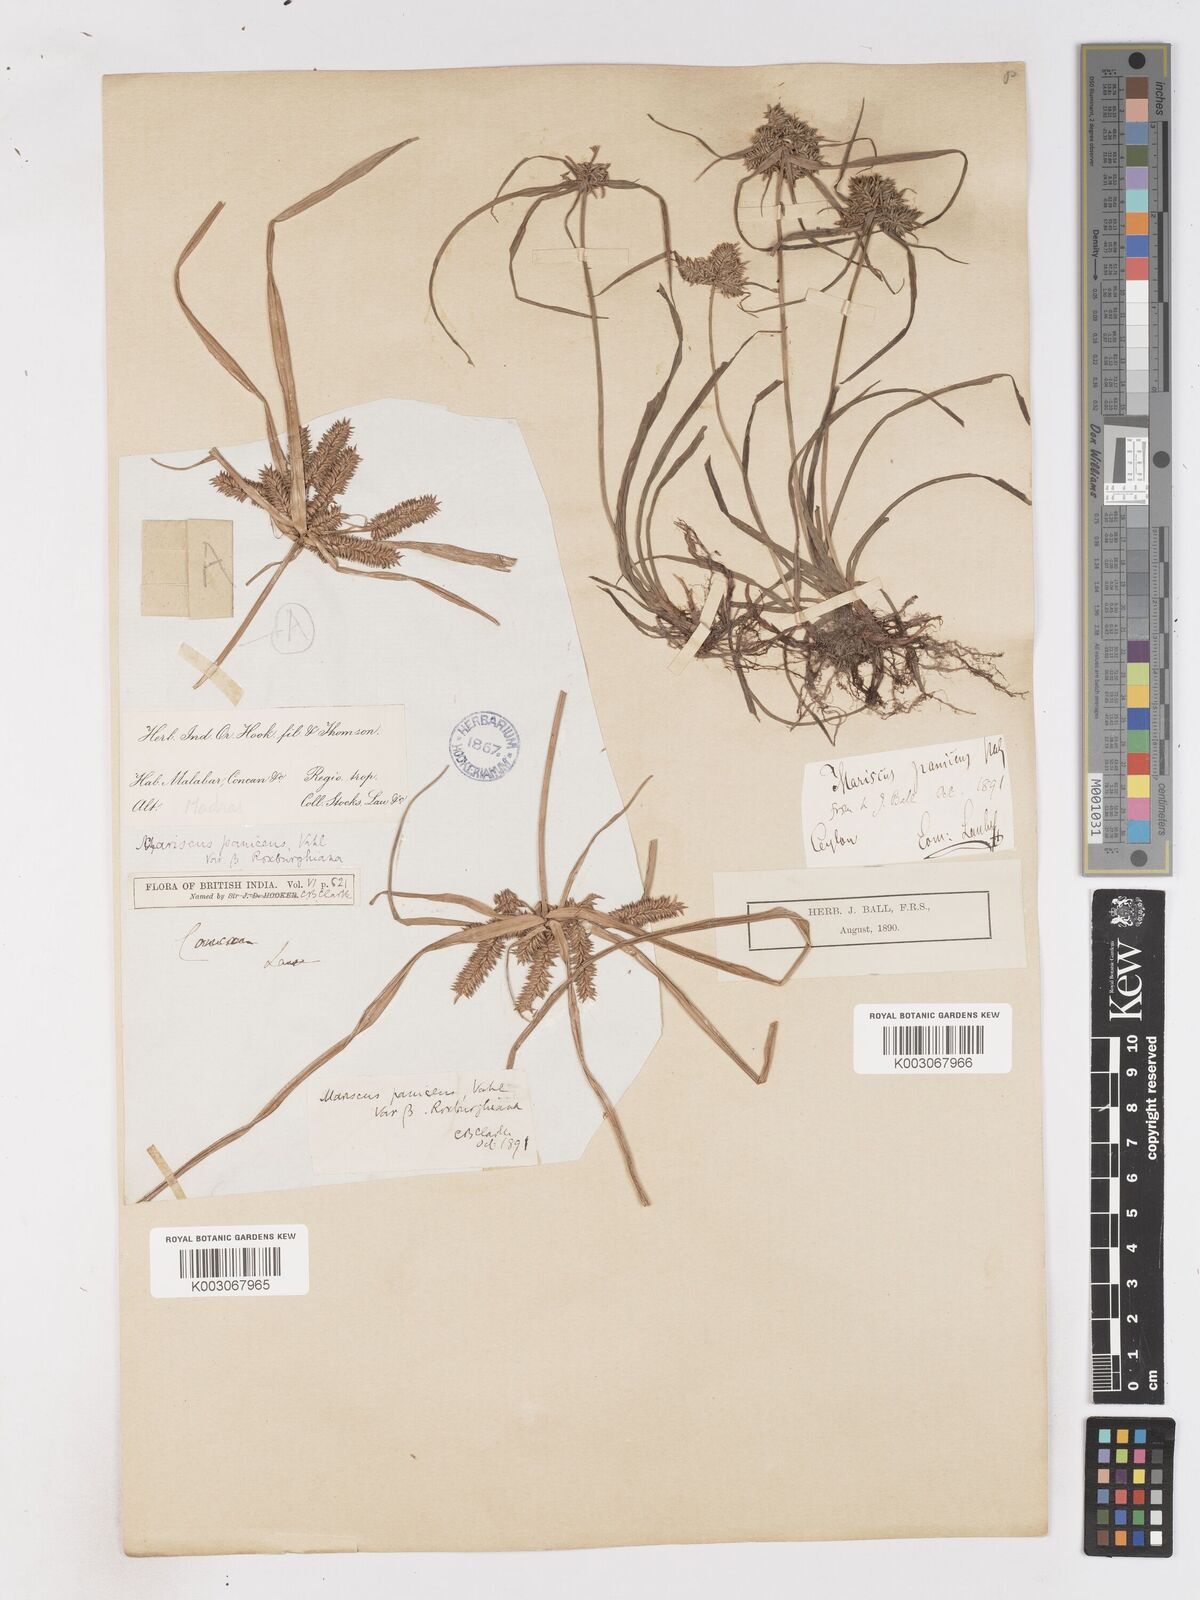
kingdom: Plantae
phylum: Tracheophyta
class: Liliopsida
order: Poales
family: Cyperaceae
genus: Cyperus
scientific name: Cyperus paniceus
